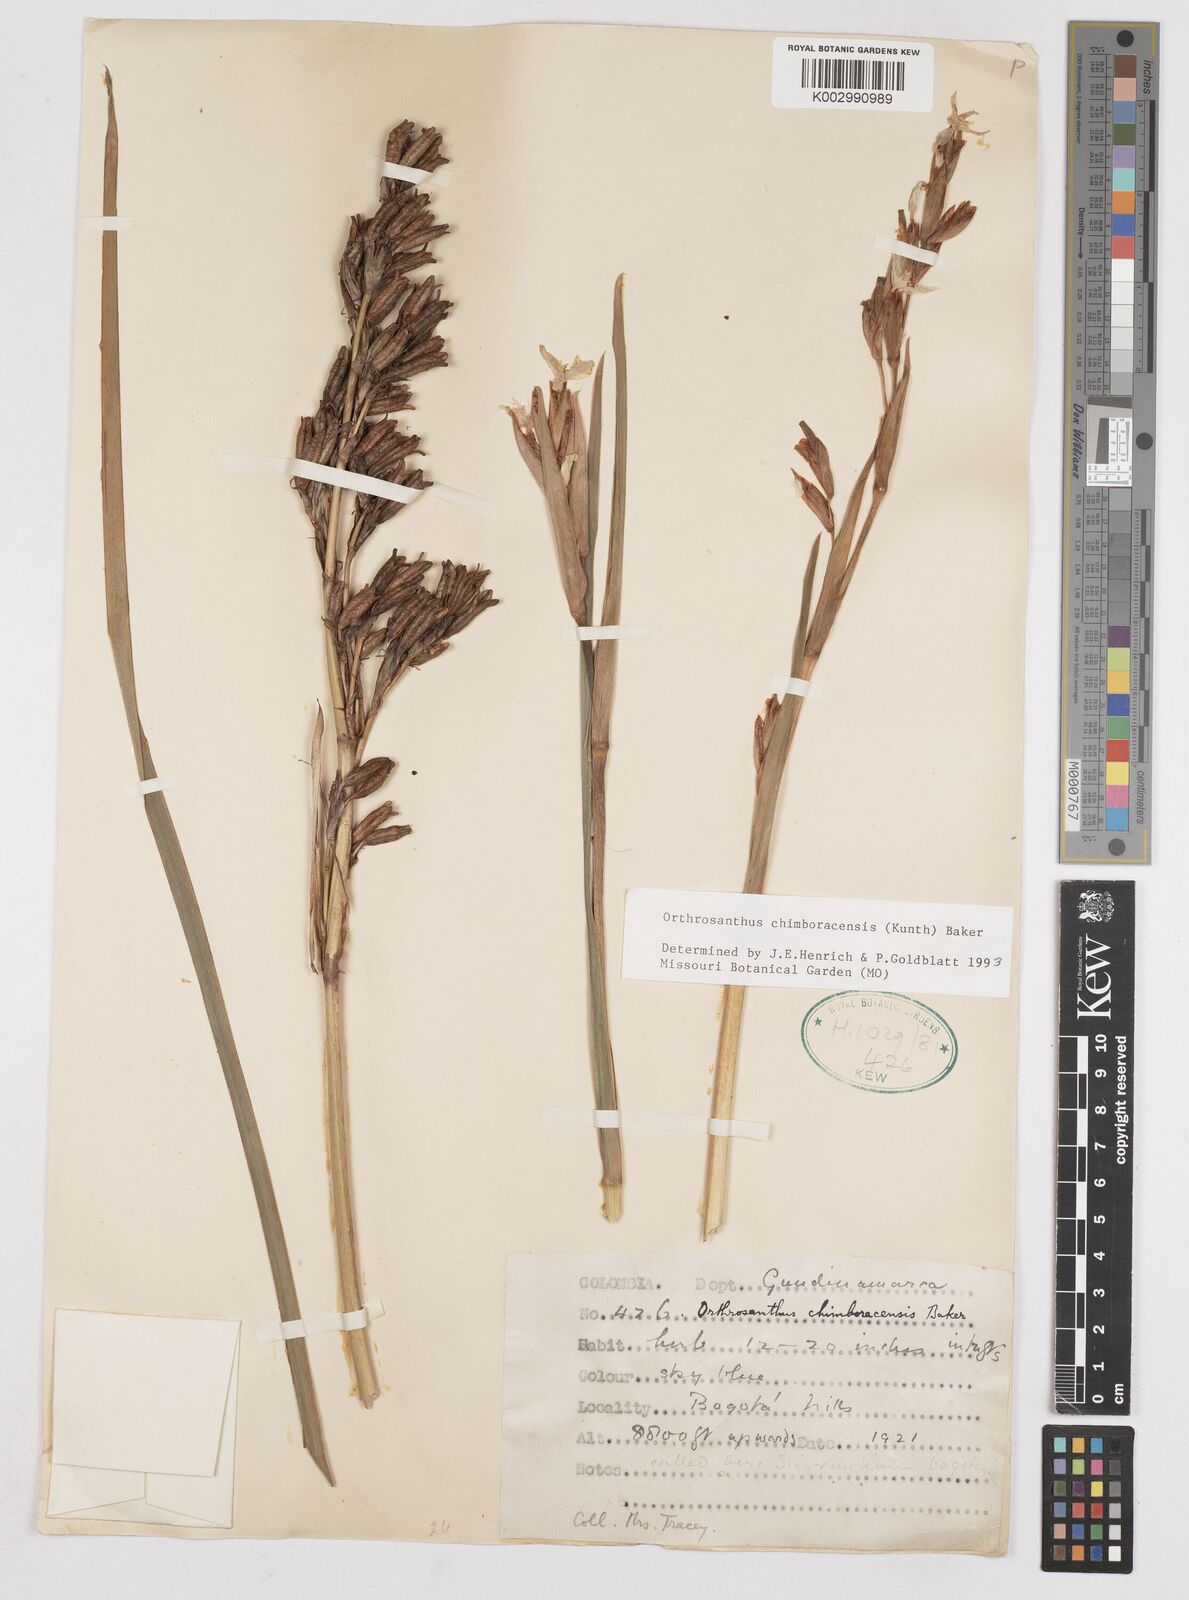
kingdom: Plantae
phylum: Tracheophyta
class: Liliopsida
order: Asparagales
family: Iridaceae
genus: Orthrosanthus
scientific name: Orthrosanthus chimboracensis
